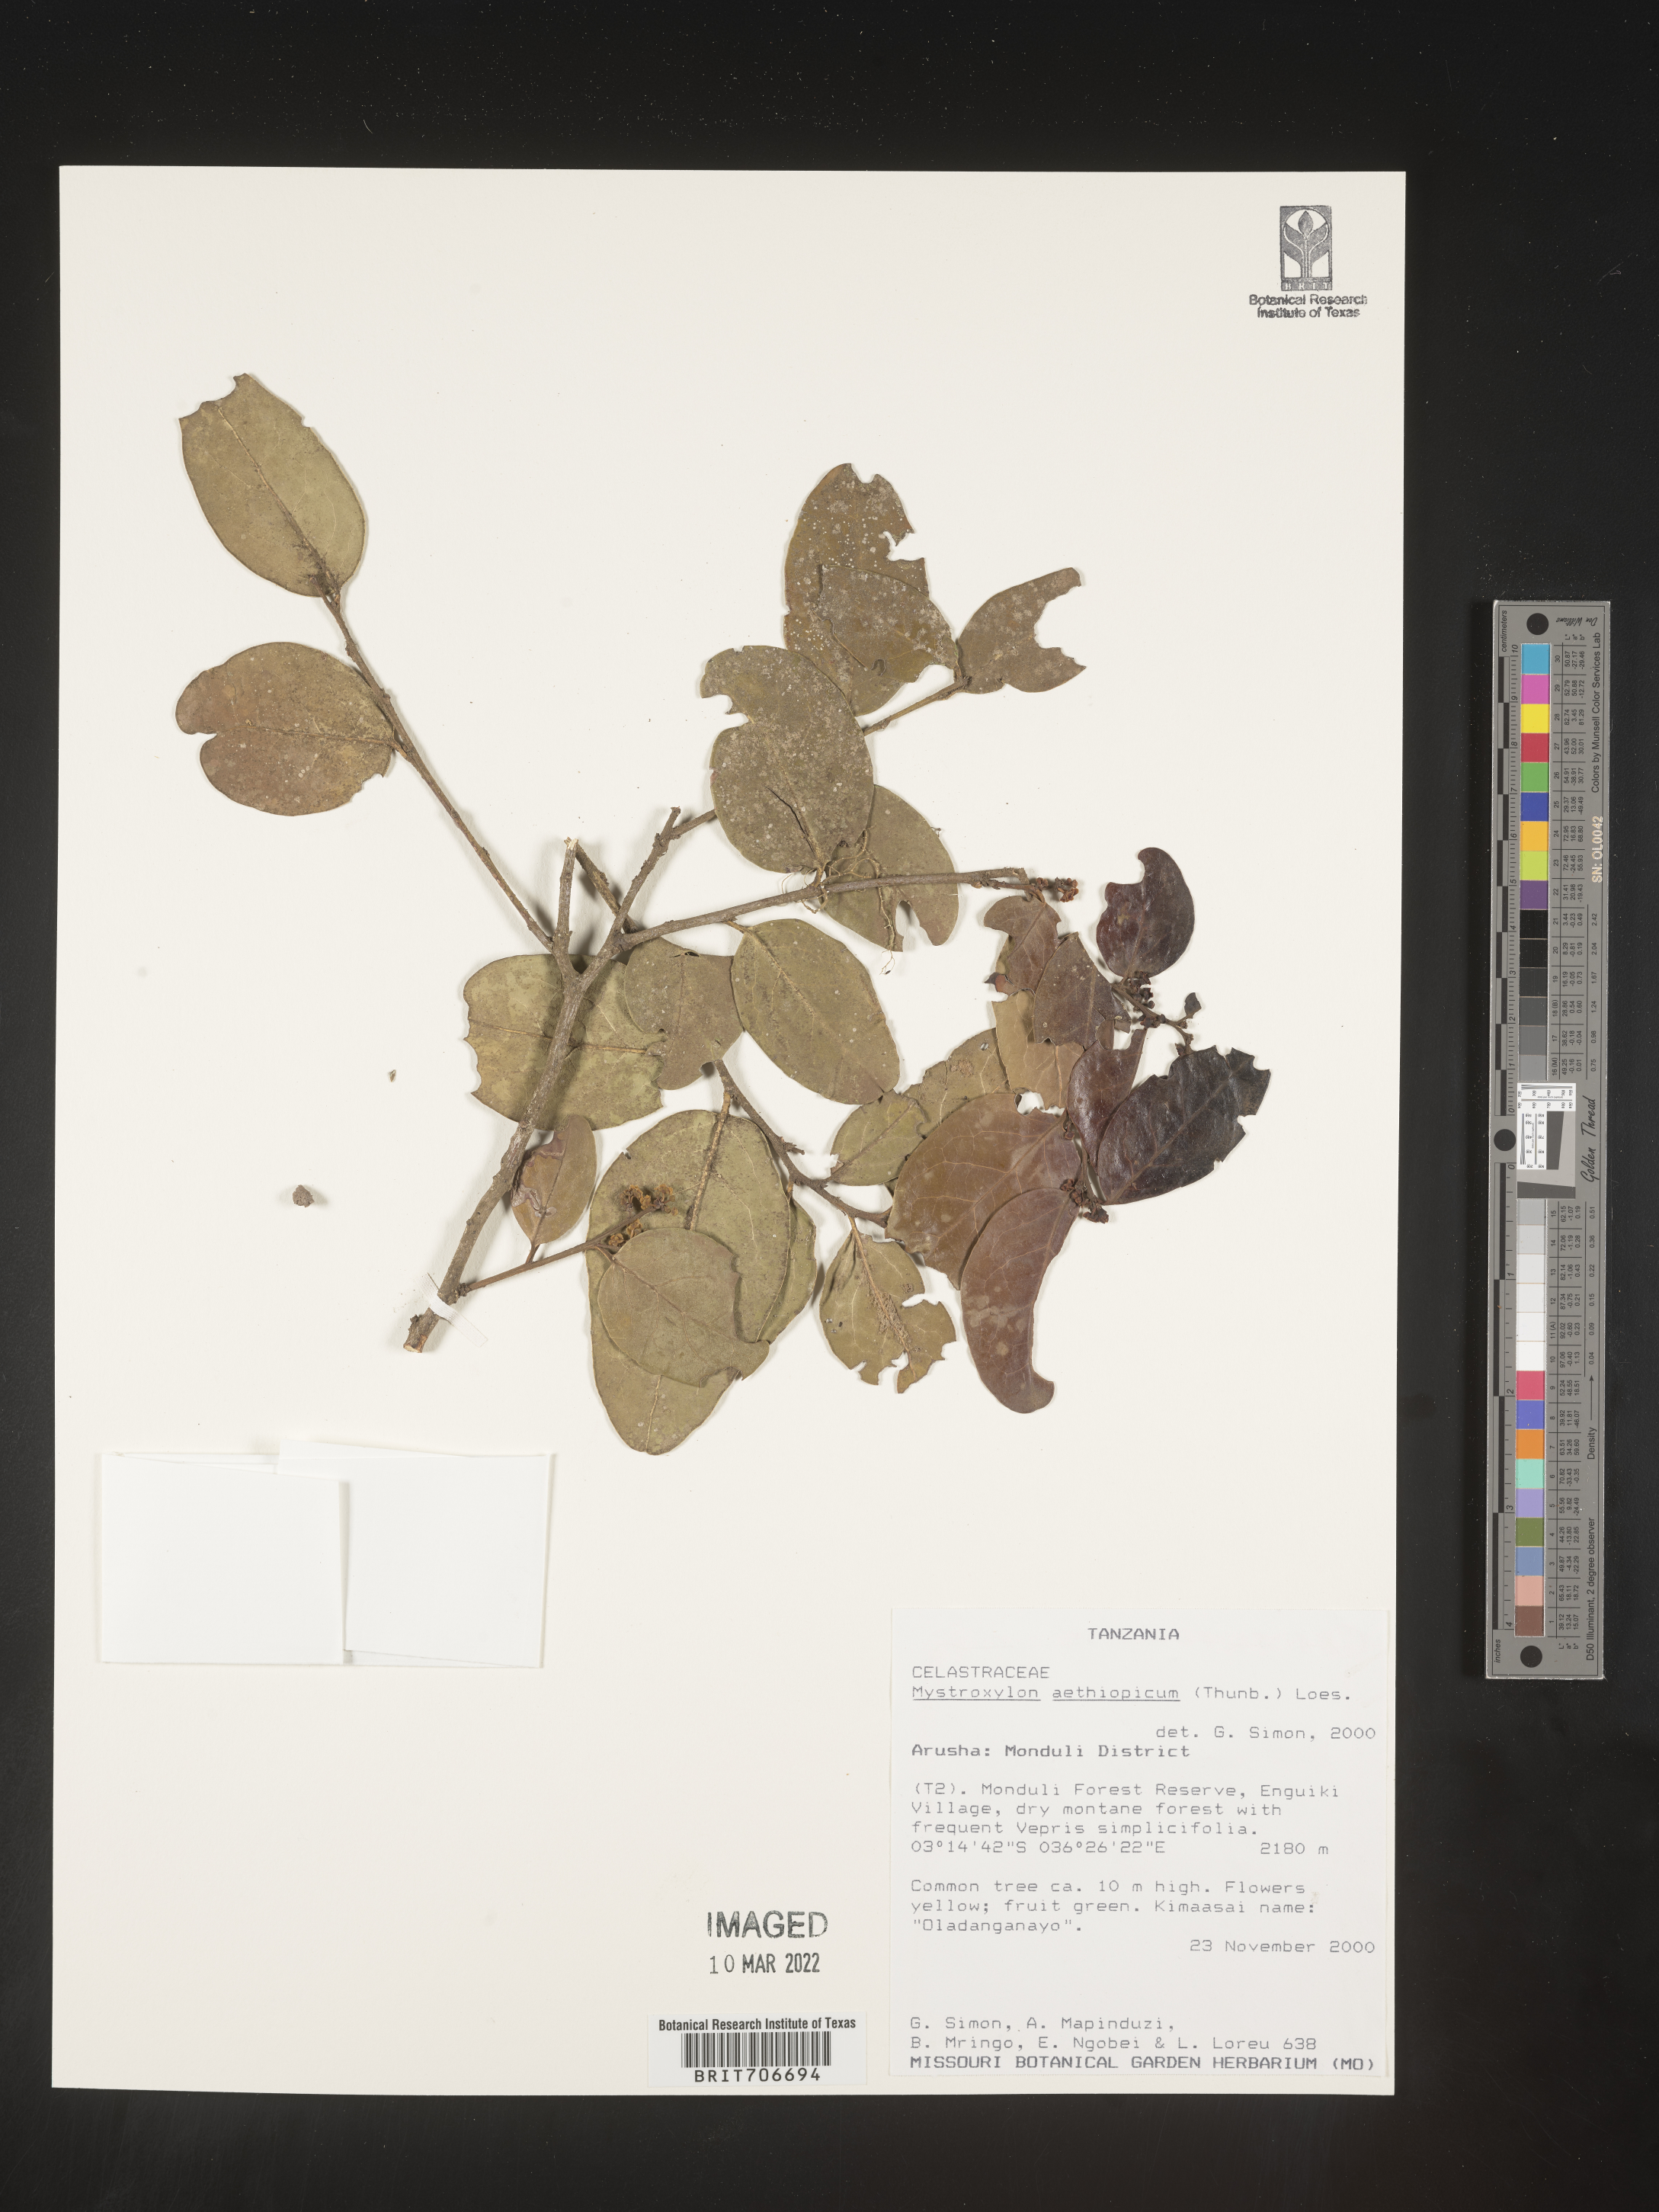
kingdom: Plantae
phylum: Tracheophyta
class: Magnoliopsida
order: Celastrales
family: Celastraceae
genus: Mystroxylon
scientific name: Mystroxylon
